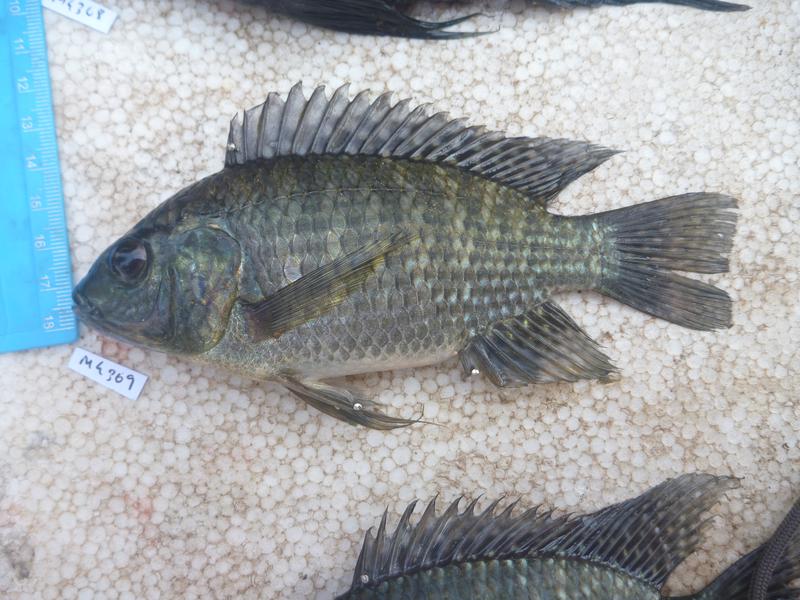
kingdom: Animalia
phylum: Chordata
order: Perciformes
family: Cichlidae
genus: Oreochromis
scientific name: Oreochromis leucostictus
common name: Blue spotted tilapia
